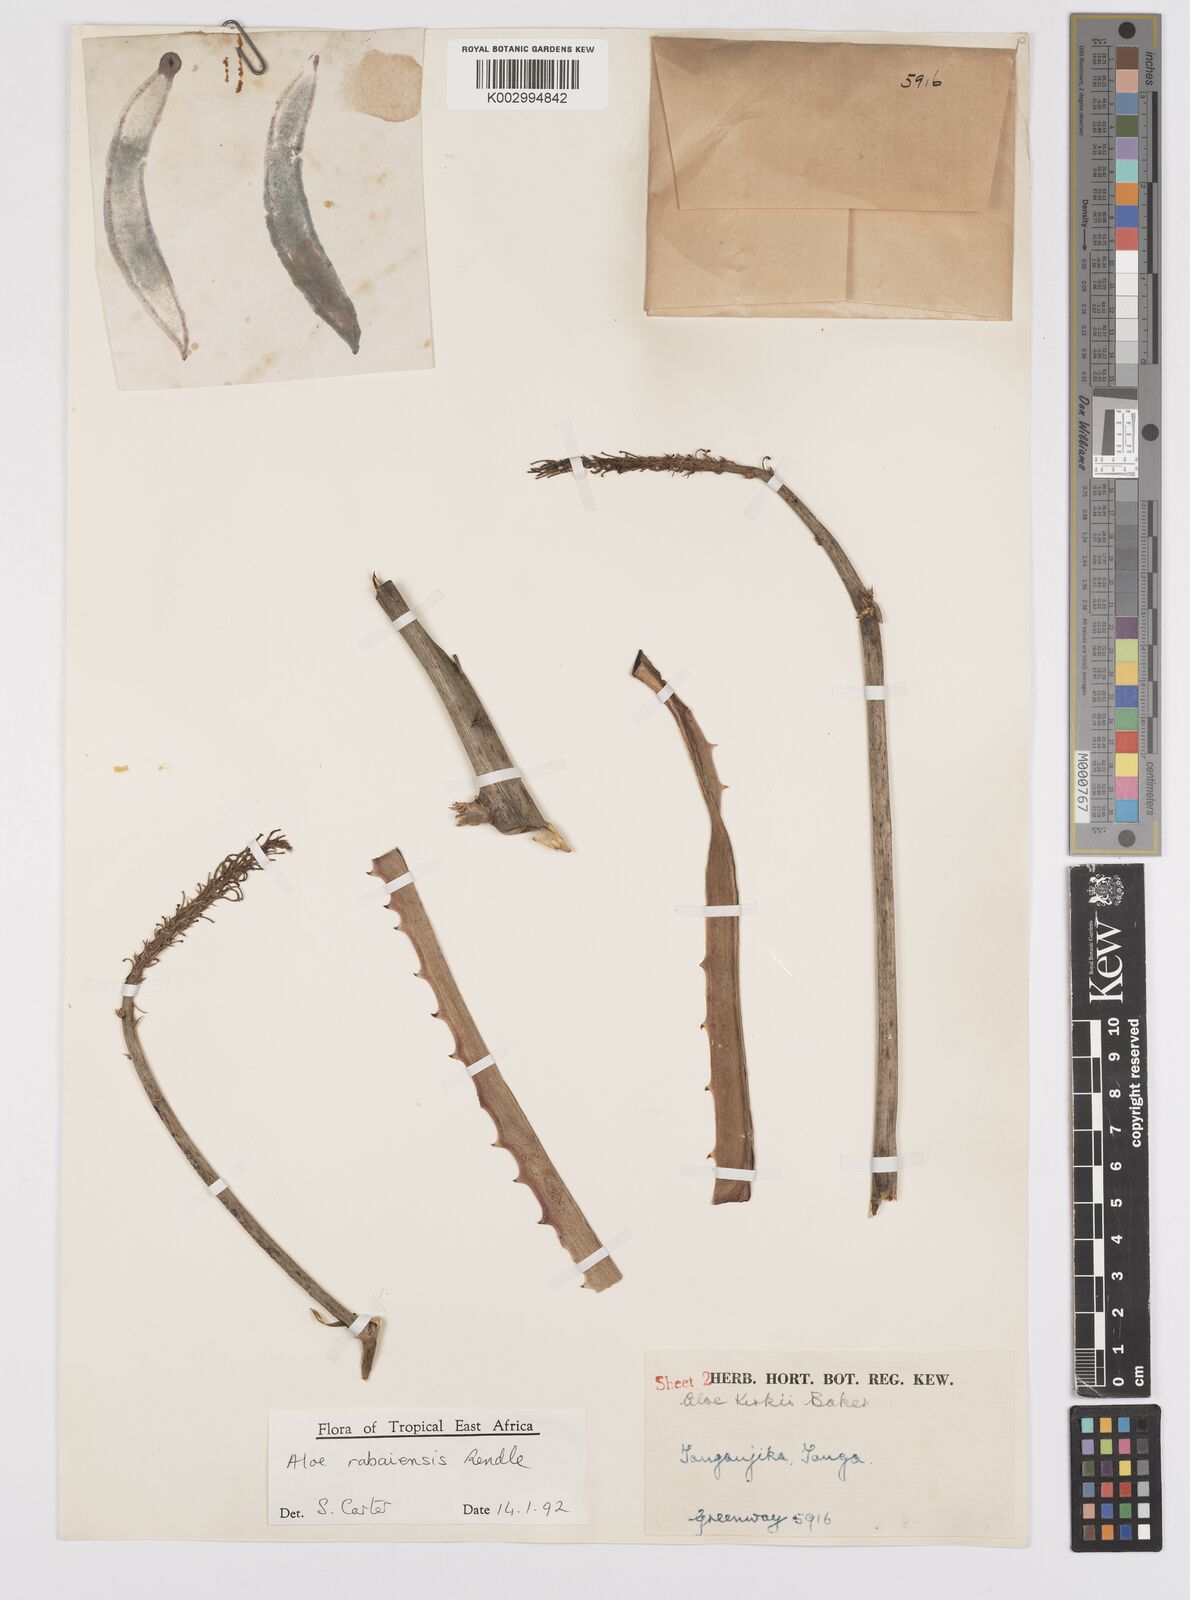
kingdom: Plantae
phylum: Tracheophyta
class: Liliopsida
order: Asparagales
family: Asphodelaceae
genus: Aloe
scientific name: Aloe rabaiensis
